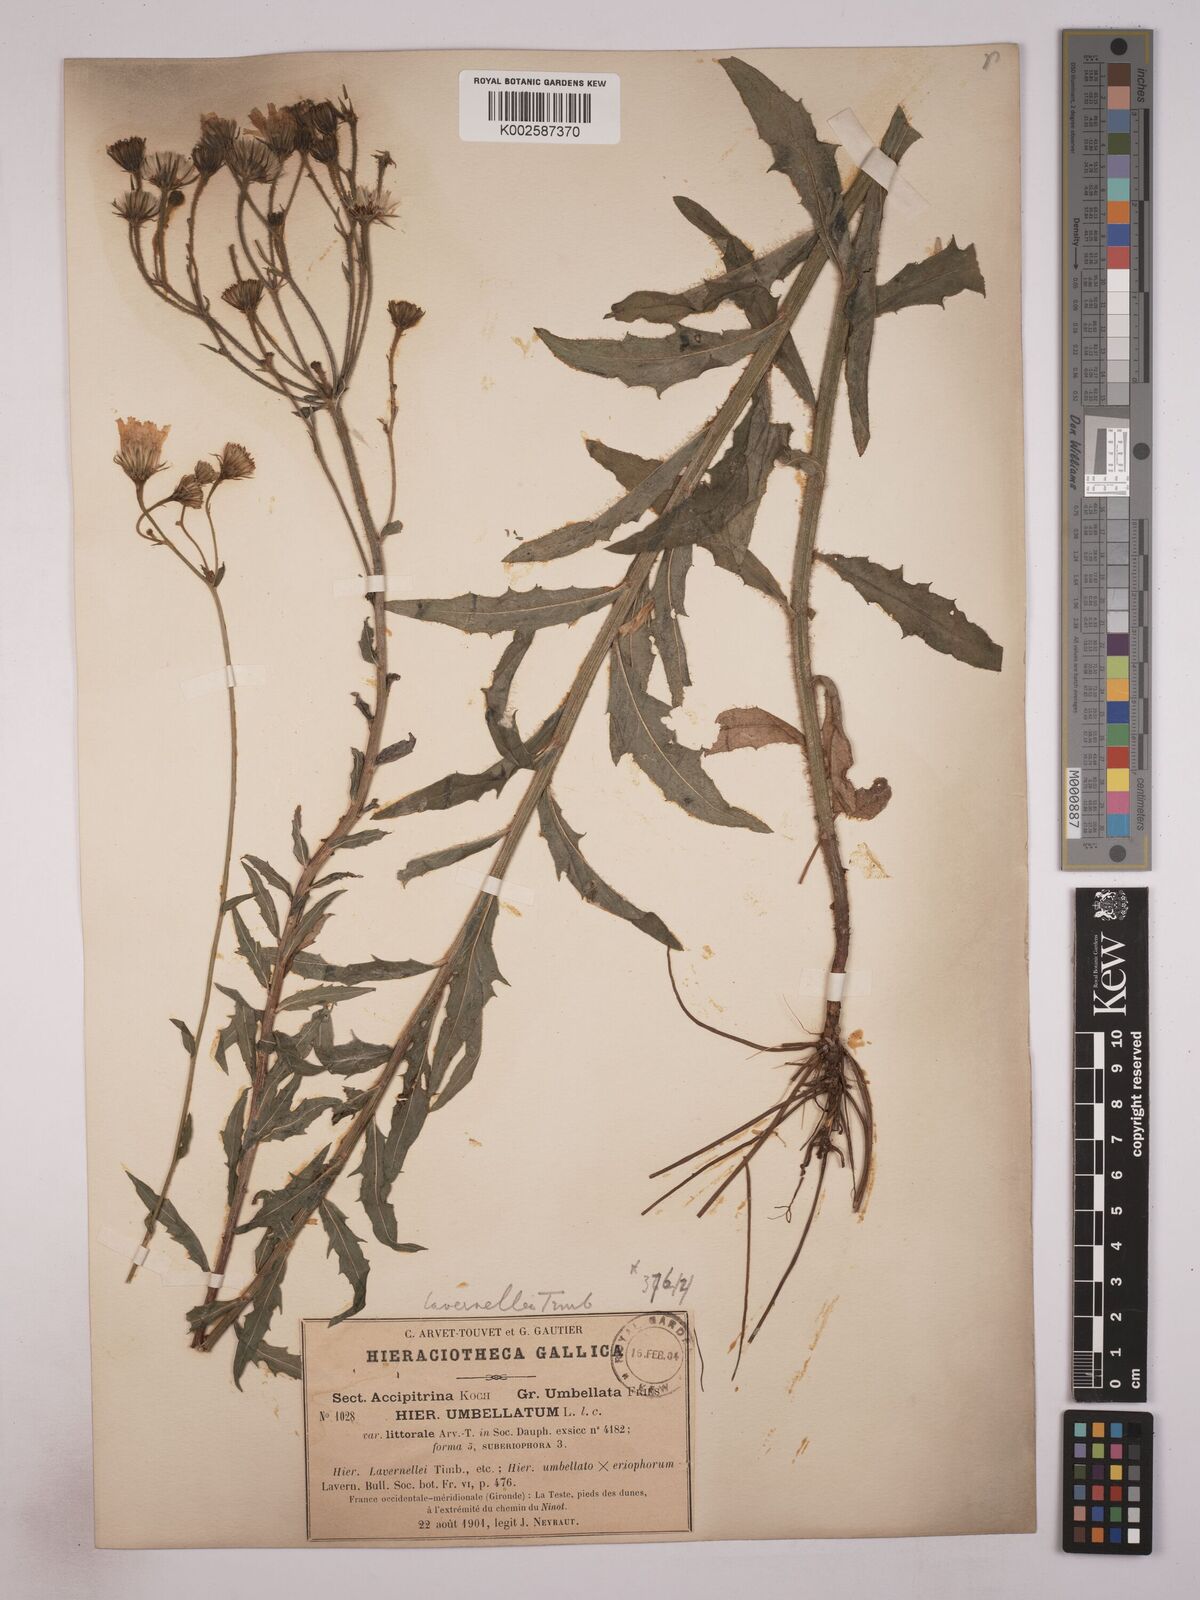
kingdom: Plantae
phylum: Tracheophyta
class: Magnoliopsida
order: Asterales
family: Asteraceae
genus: Hieracium
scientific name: Hieracium
